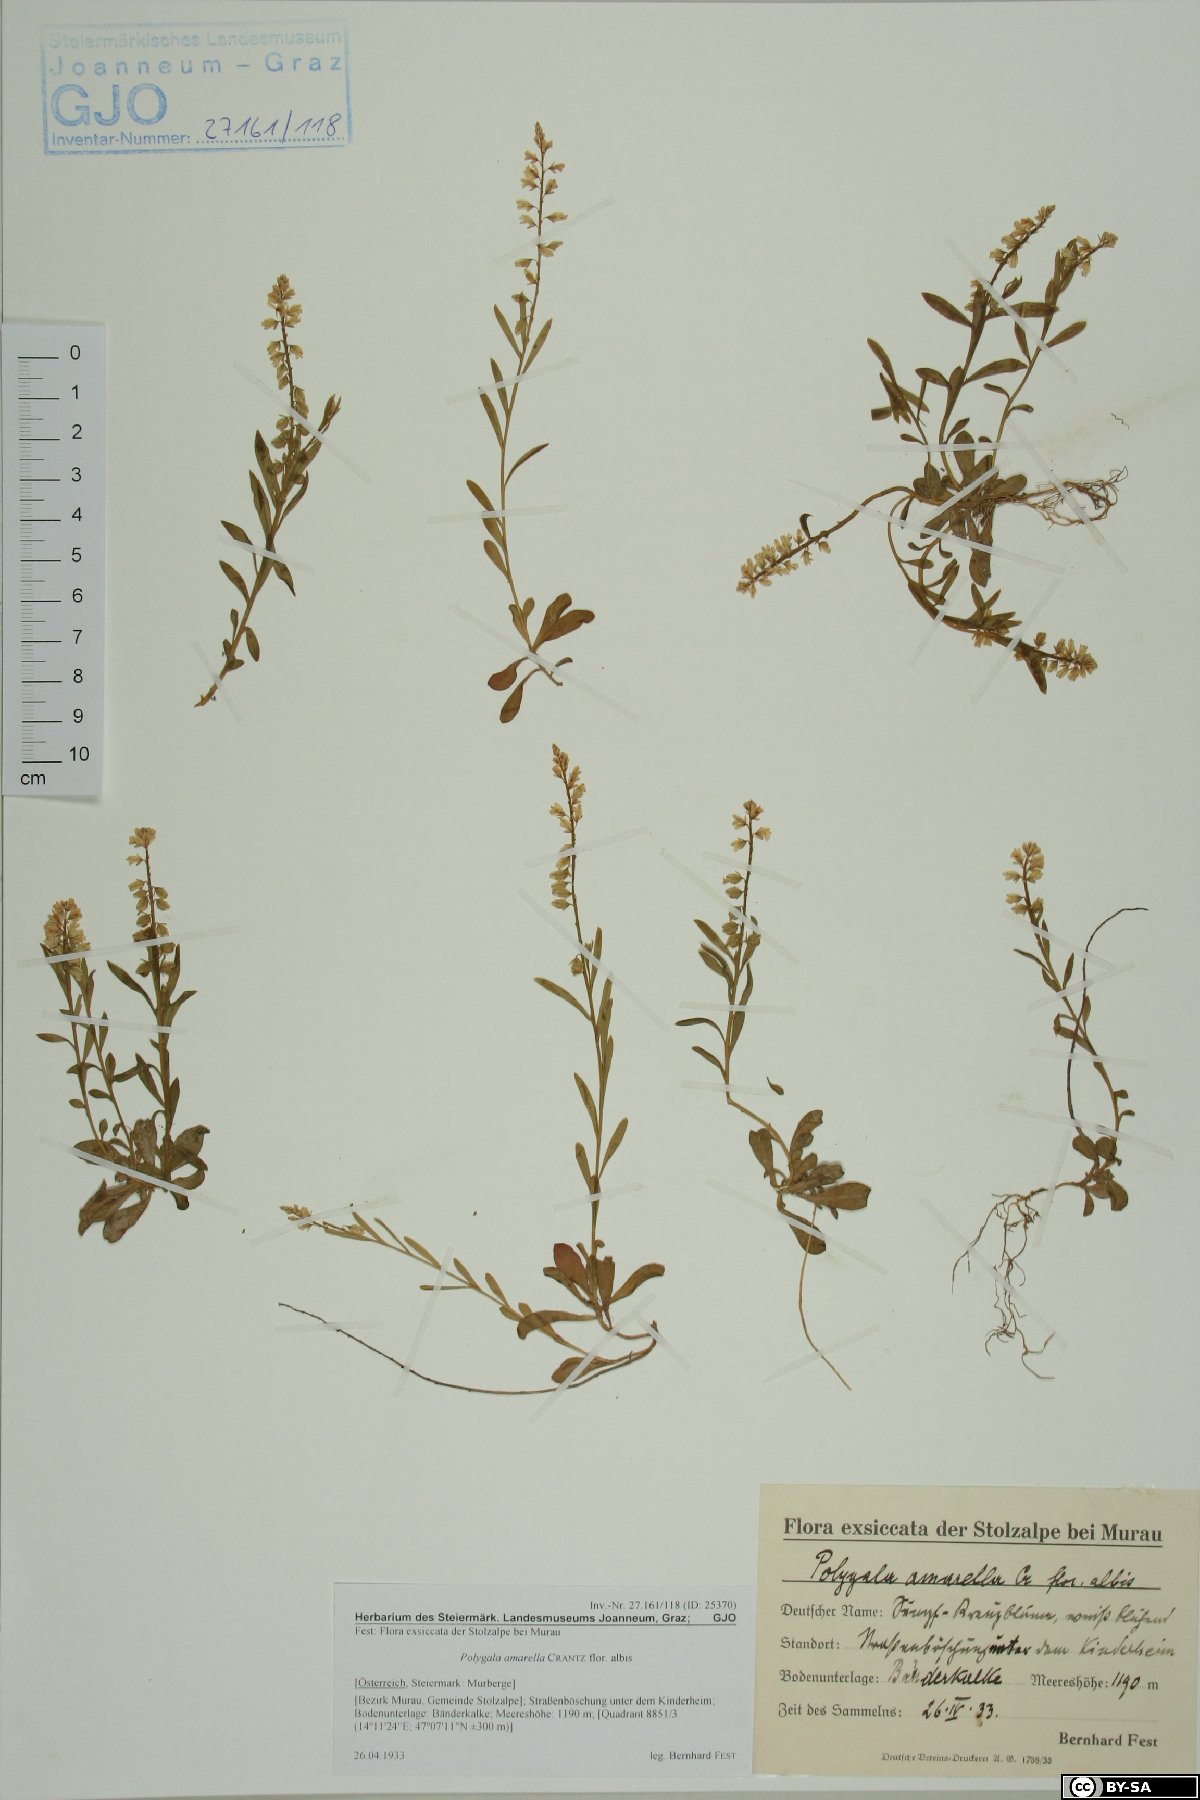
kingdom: Plantae
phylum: Tracheophyta
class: Magnoliopsida
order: Fabales
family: Polygalaceae
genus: Polygala
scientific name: Polygala amarella
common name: Dwarf milkwort
